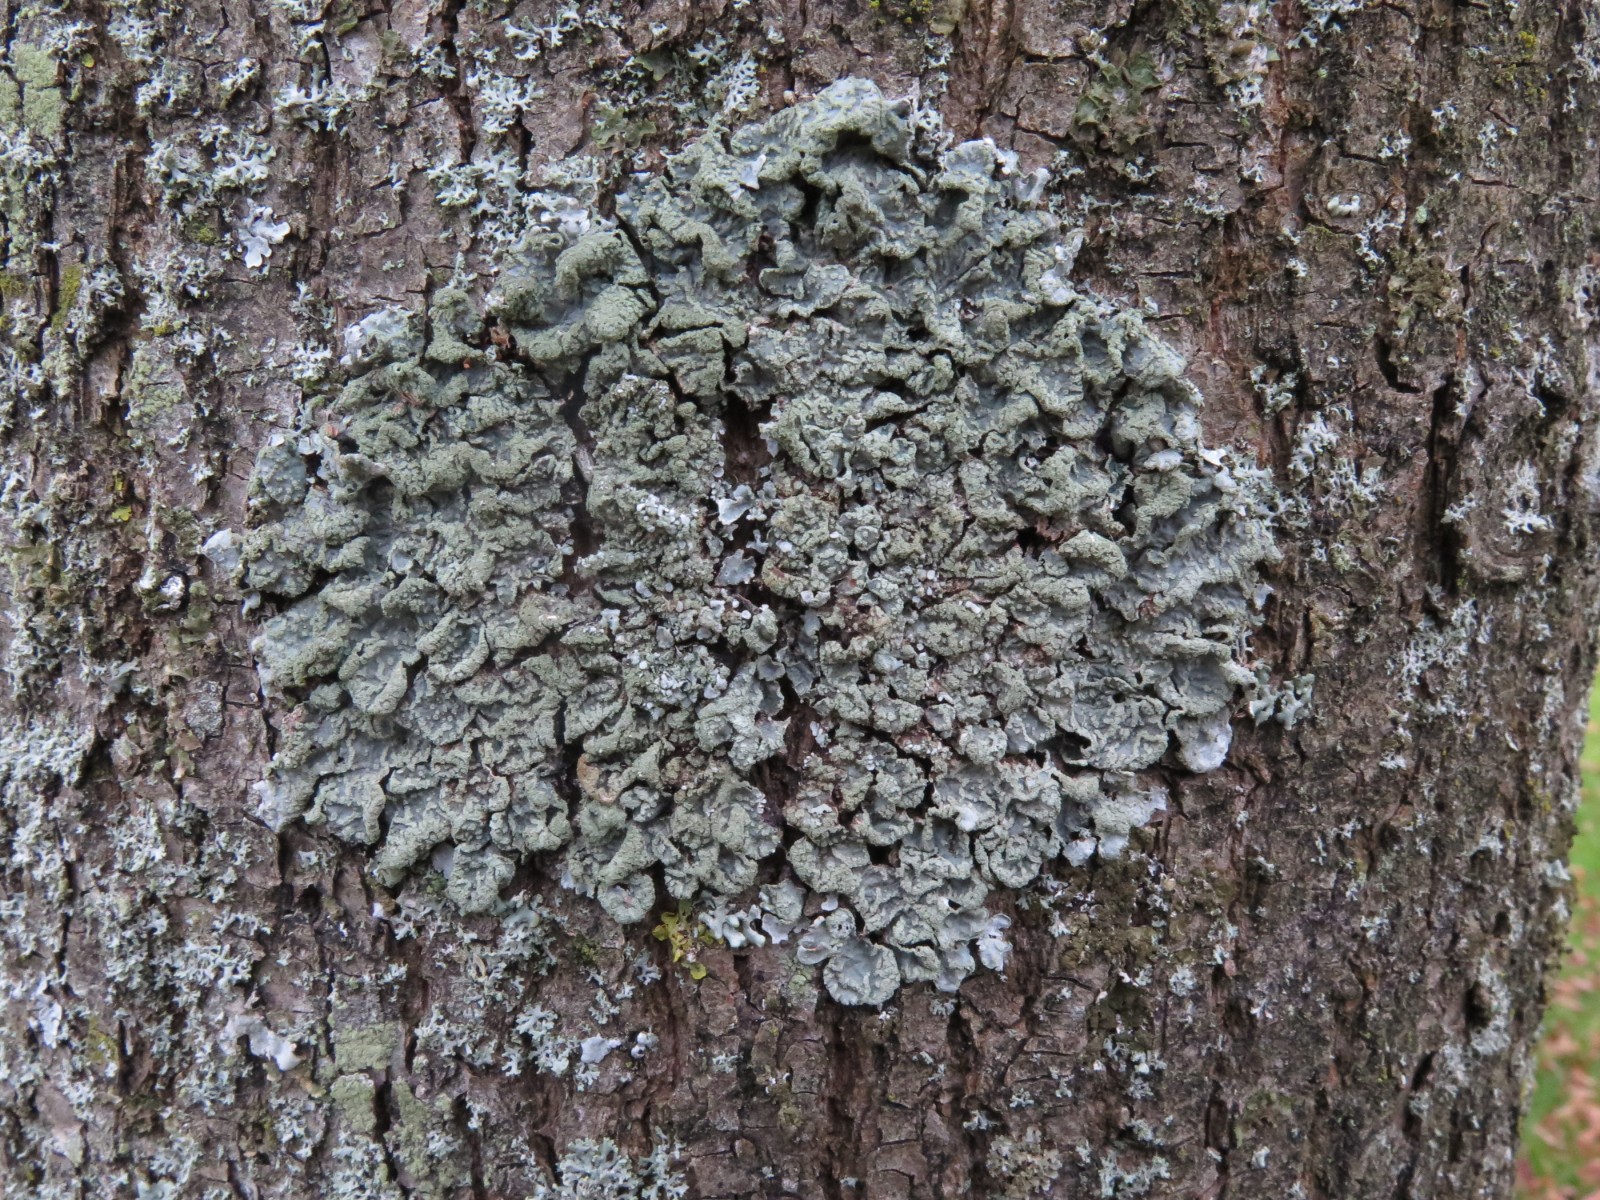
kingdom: Fungi
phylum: Ascomycota
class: Lecanoromycetes
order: Lecanorales
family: Parmeliaceae
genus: Parmelia
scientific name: Parmelia sulcata
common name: rynket skållav
